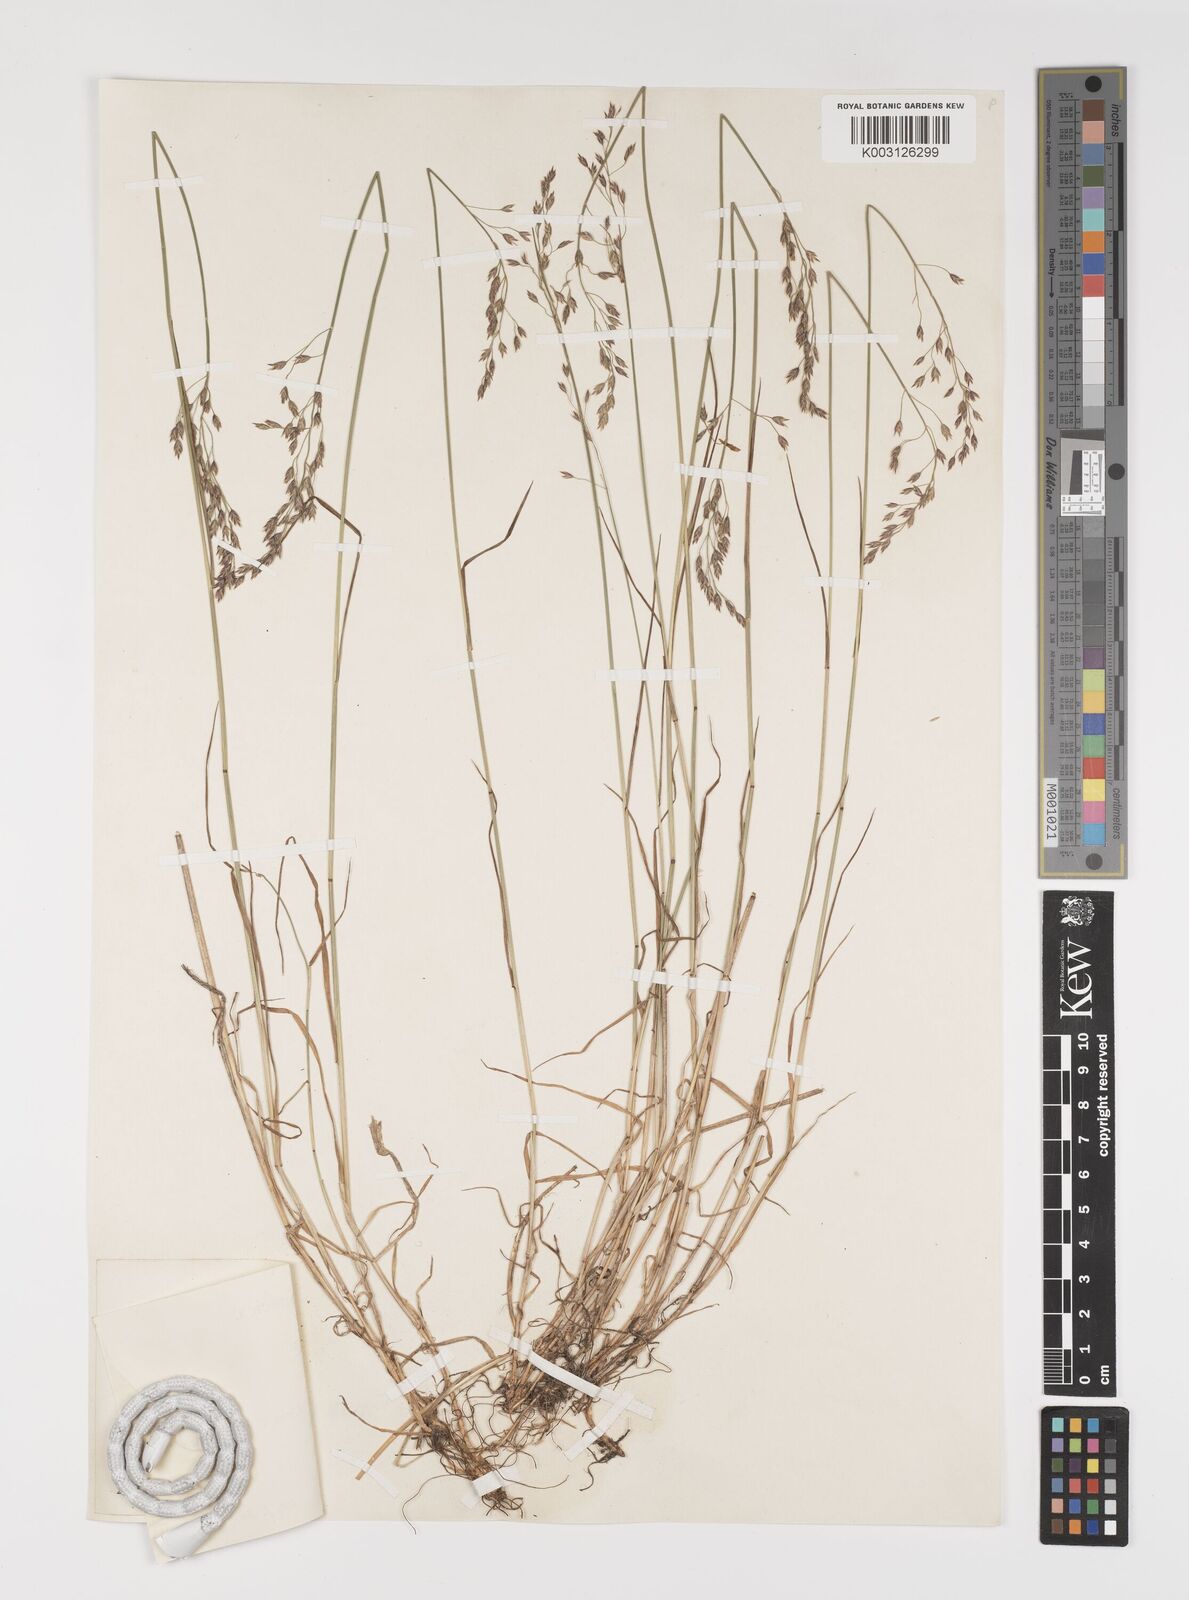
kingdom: Plantae
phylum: Tracheophyta
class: Liliopsida
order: Poales
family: Poaceae
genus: Poa
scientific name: Poa glauca
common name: Glaucous bluegrass
